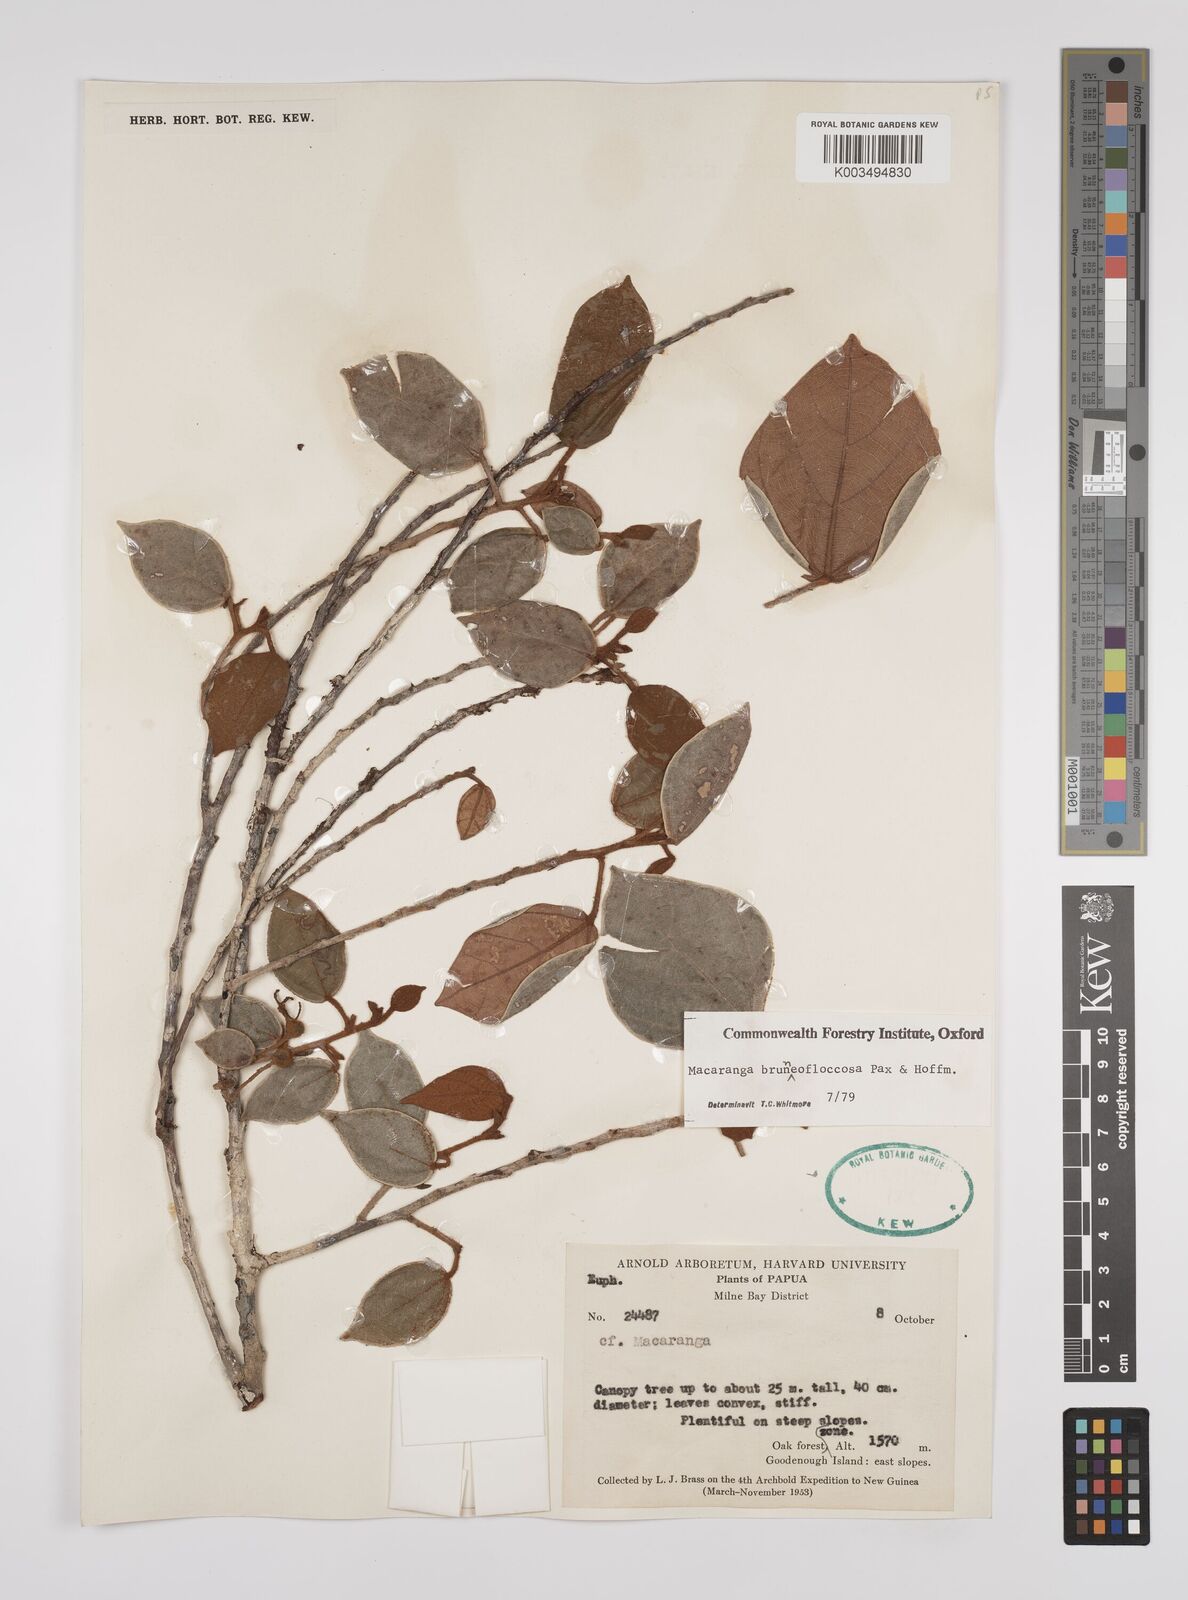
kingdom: Plantae
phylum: Tracheophyta
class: Magnoliopsida
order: Malpighiales
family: Euphorbiaceae
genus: Macaranga
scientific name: Macaranga brunneofloccosa
